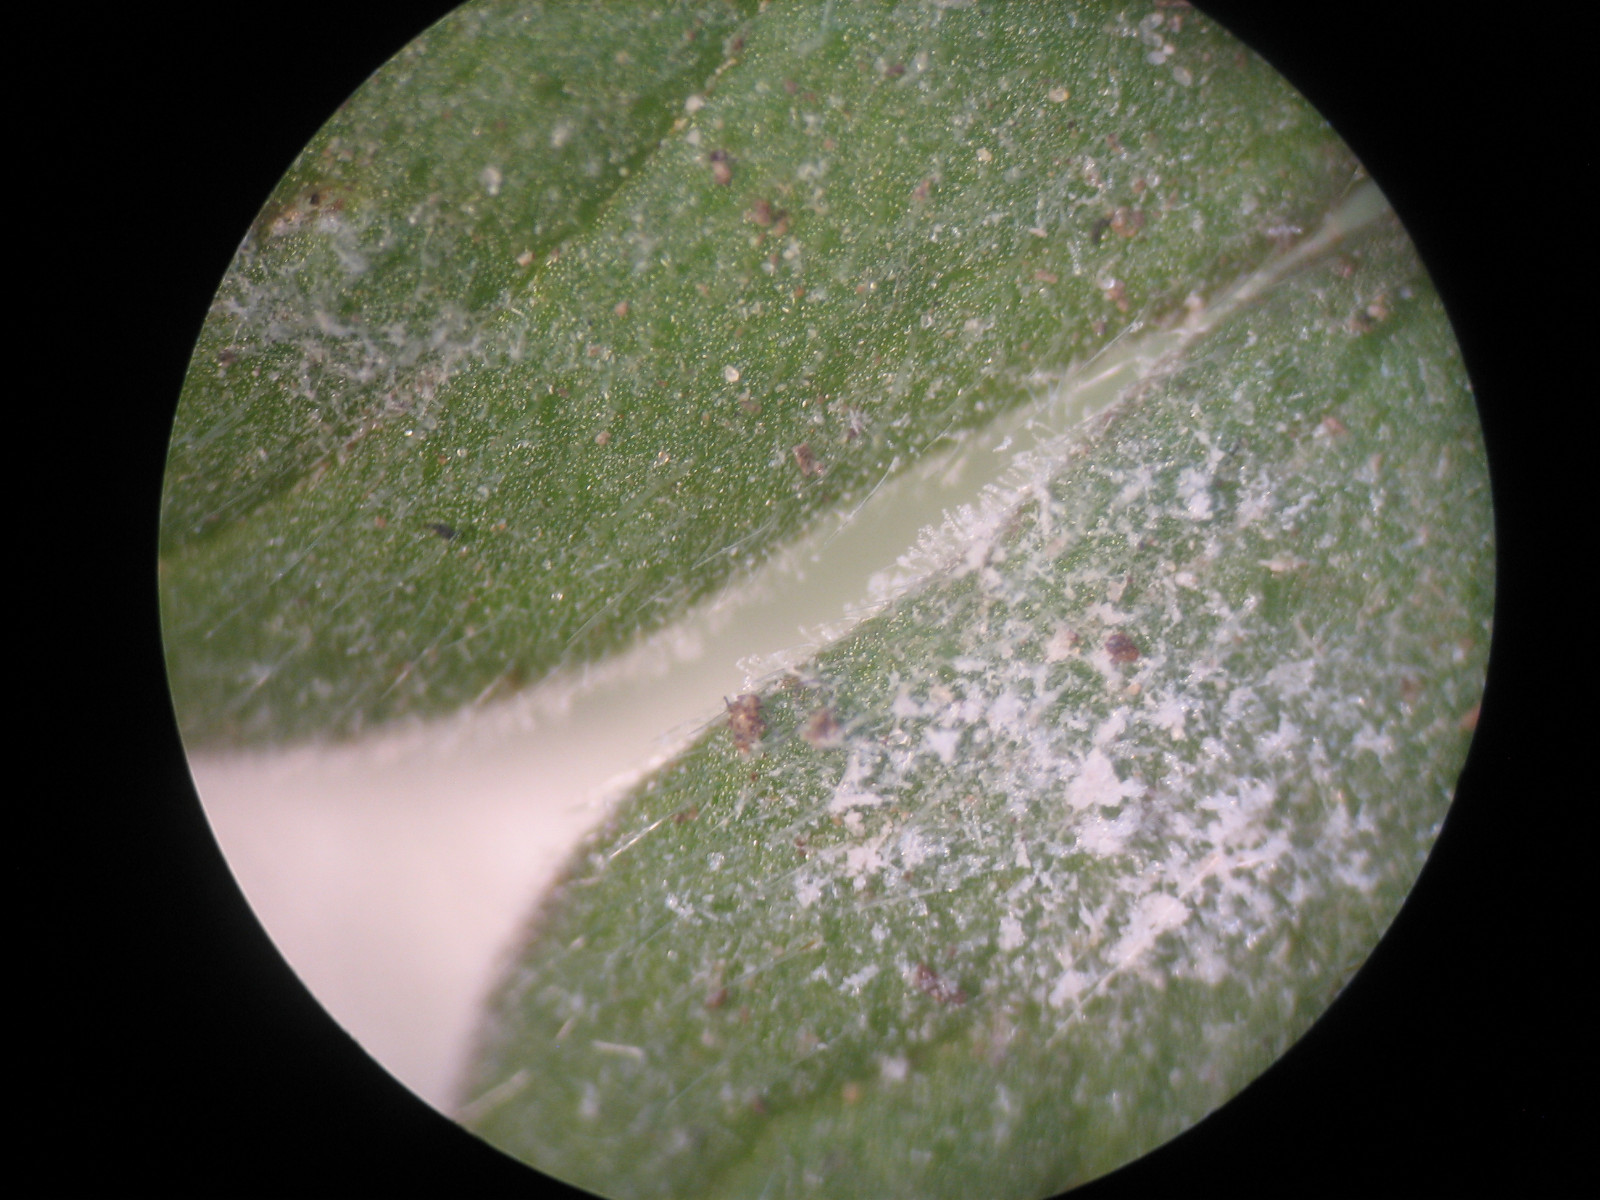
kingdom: Fungi
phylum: Ascomycota
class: Leotiomycetes
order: Helotiales
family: Erysiphaceae
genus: Podosphaera
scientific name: Podosphaera fugax
